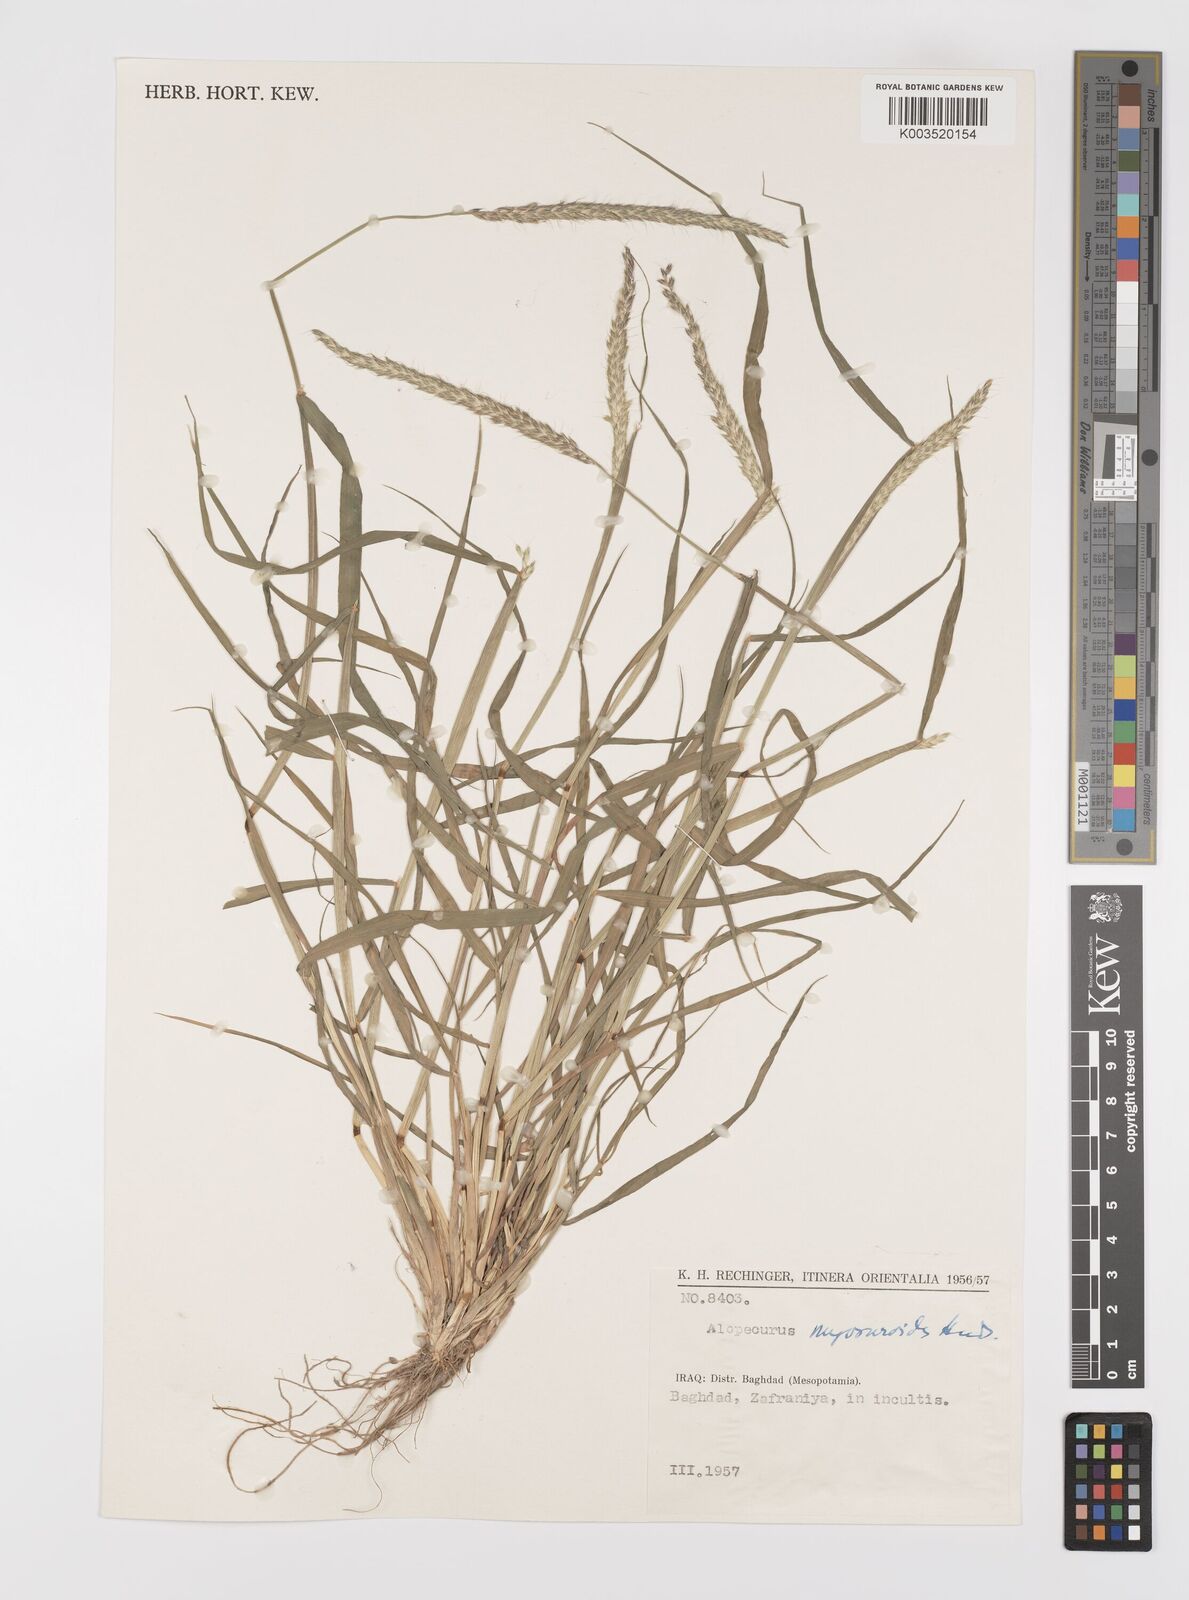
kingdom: Plantae
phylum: Tracheophyta
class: Liliopsida
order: Poales
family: Poaceae
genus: Alopecurus
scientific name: Alopecurus myosuroides
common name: Black-grass
